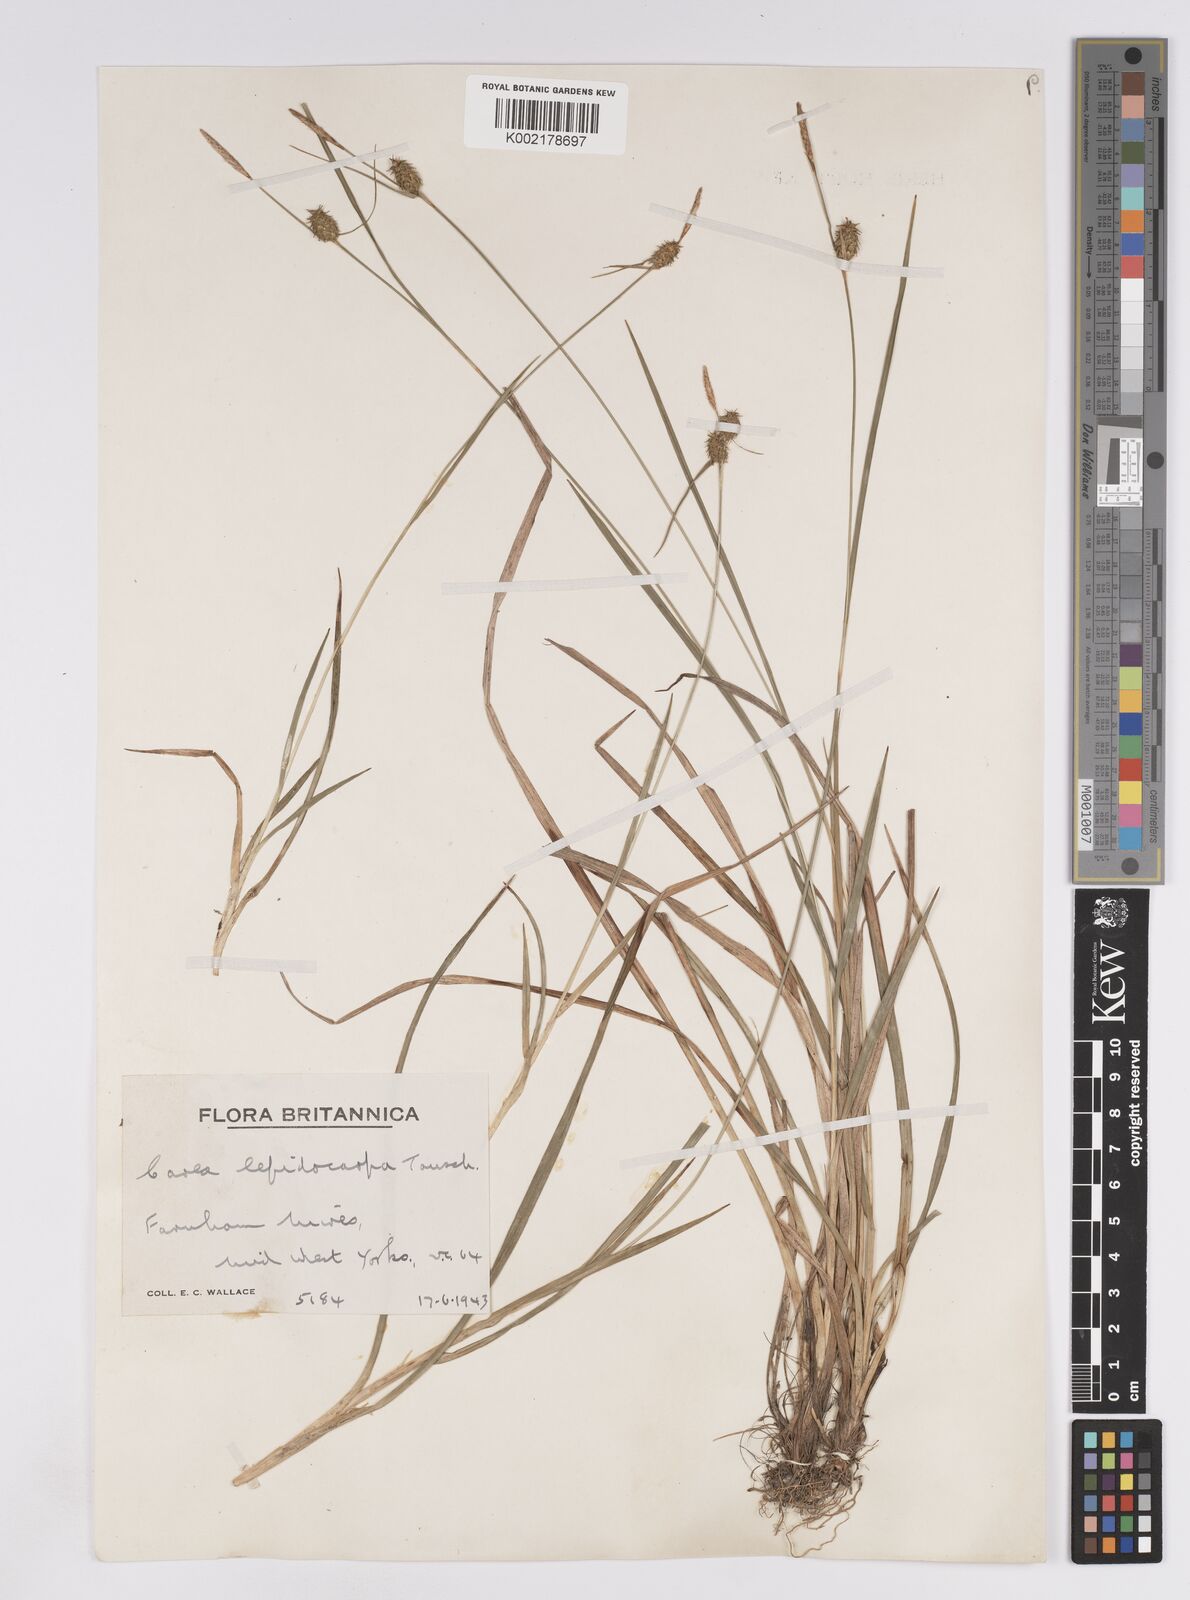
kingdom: Plantae
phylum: Tracheophyta
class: Liliopsida
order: Poales
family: Cyperaceae
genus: Carex
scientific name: Carex lepidocarpa
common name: Long-stalked yellow-sedge
